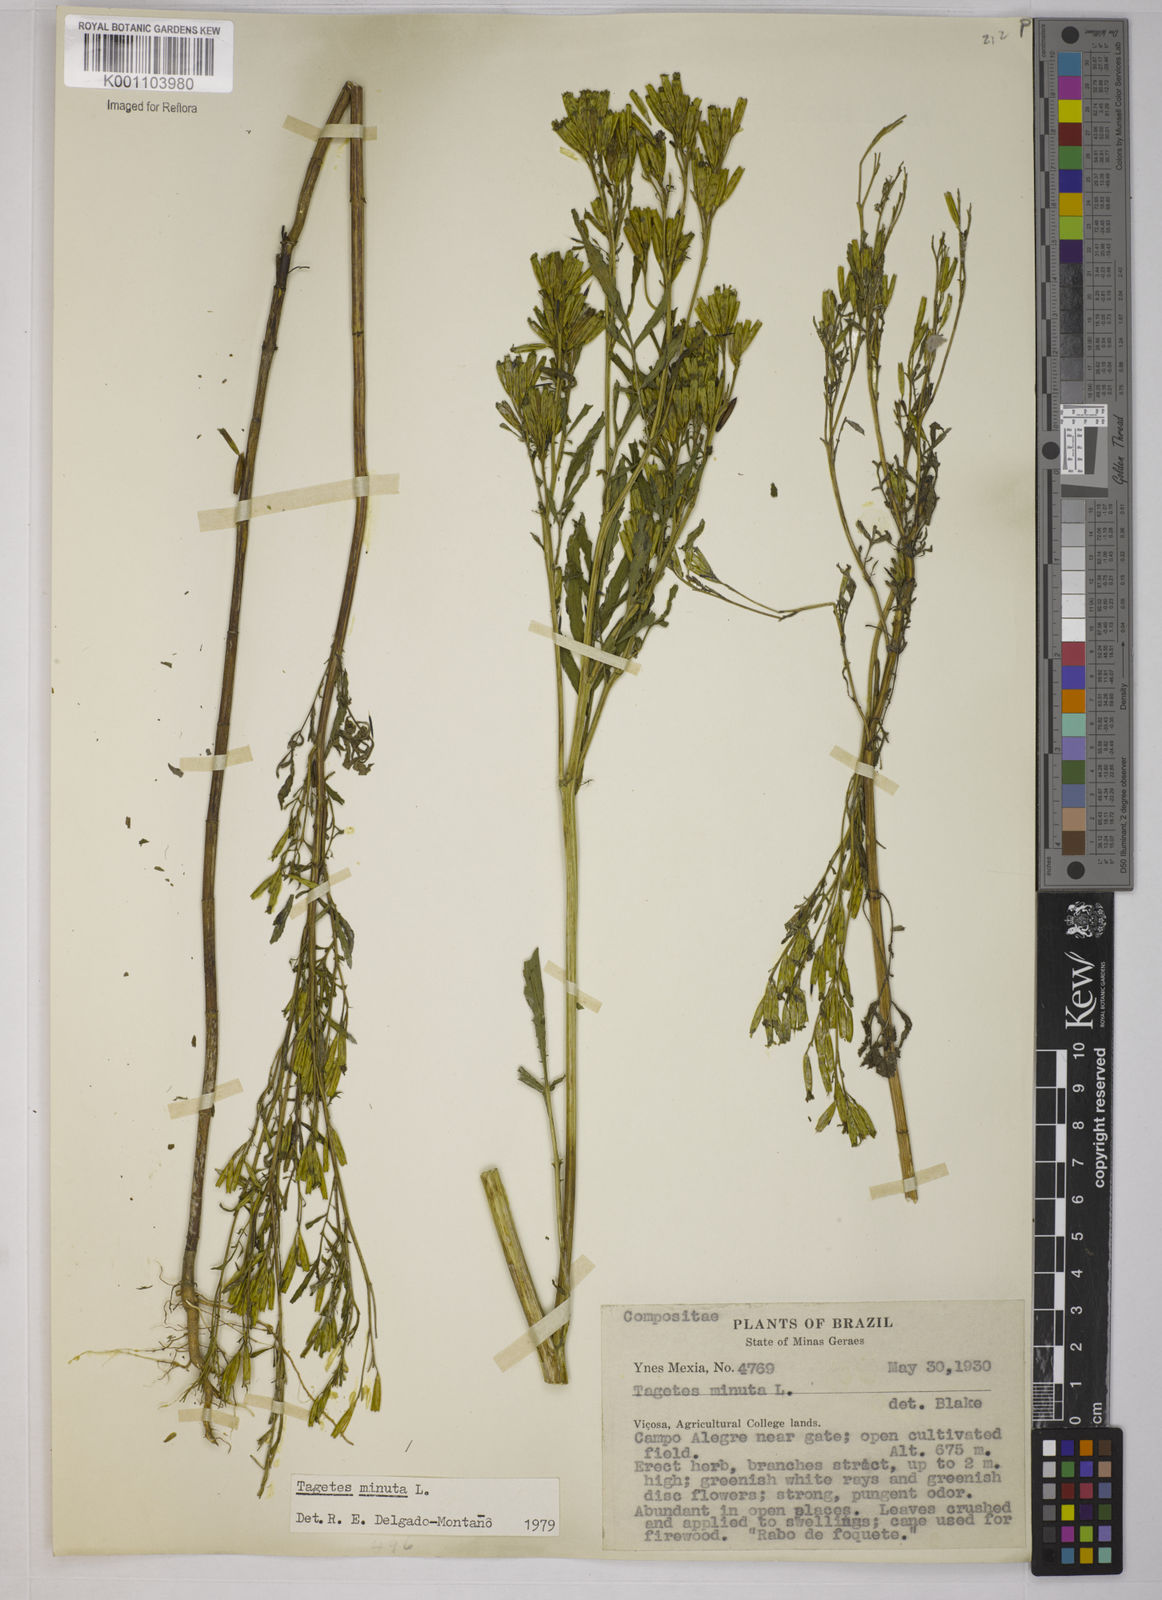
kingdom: Plantae
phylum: Tracheophyta
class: Magnoliopsida
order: Asterales
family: Asteraceae
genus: Tagetes
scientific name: Tagetes minuta
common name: Muster john henry
